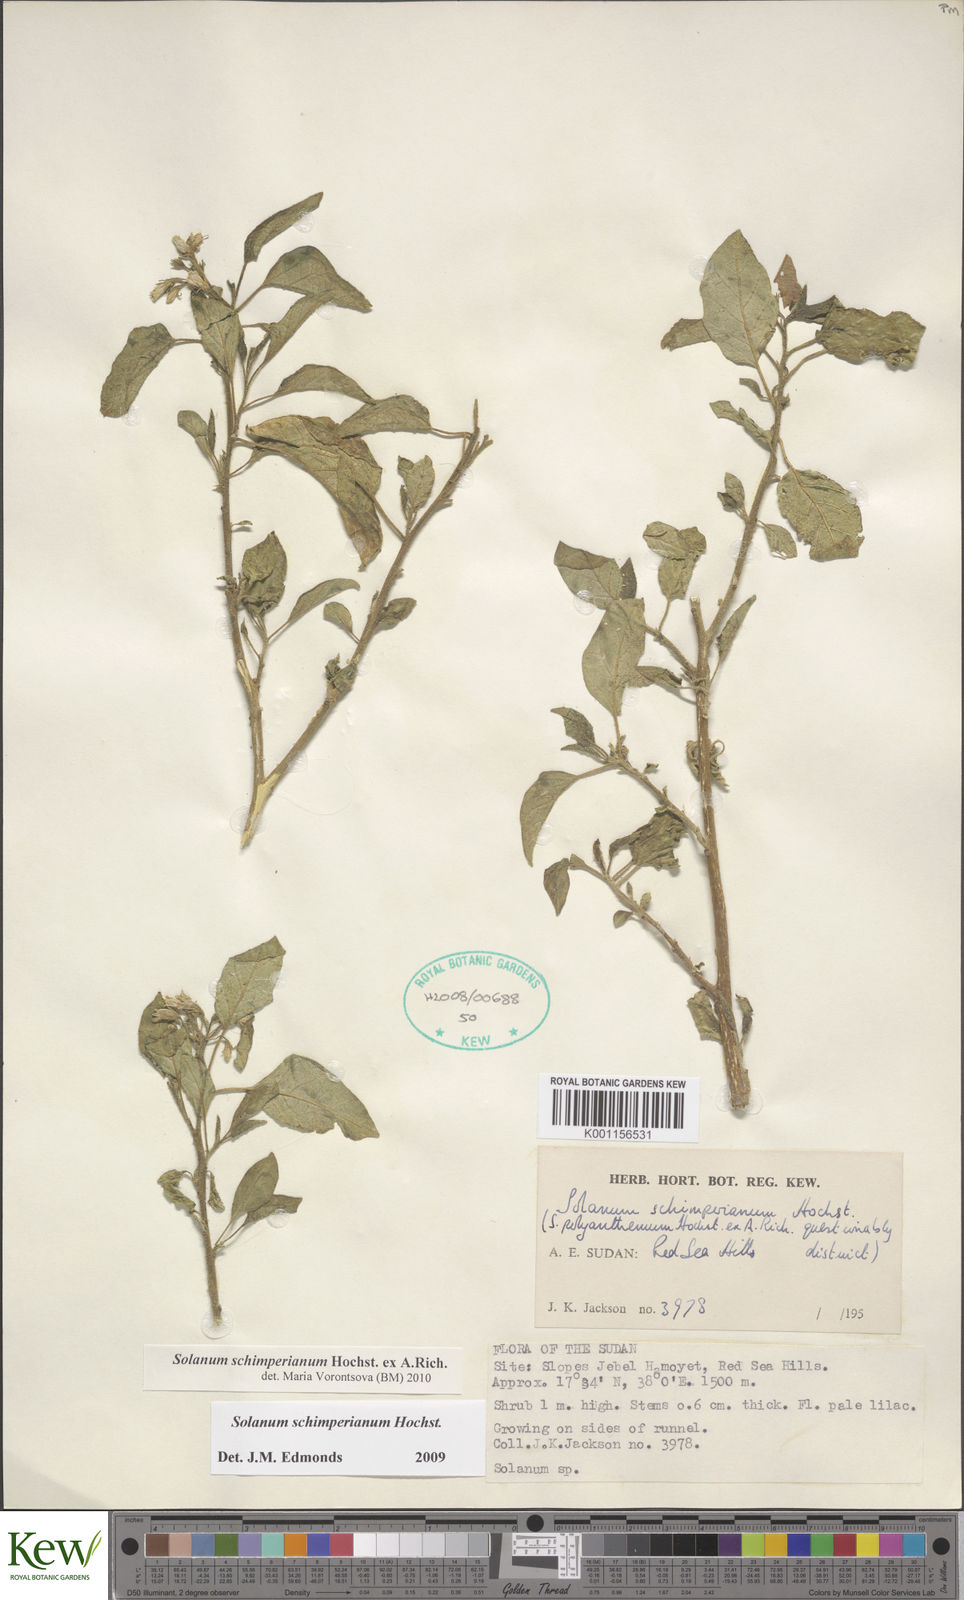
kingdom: Plantae
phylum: Tracheophyta
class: Magnoliopsida
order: Solanales
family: Solanaceae
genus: Solanum
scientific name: Solanum
